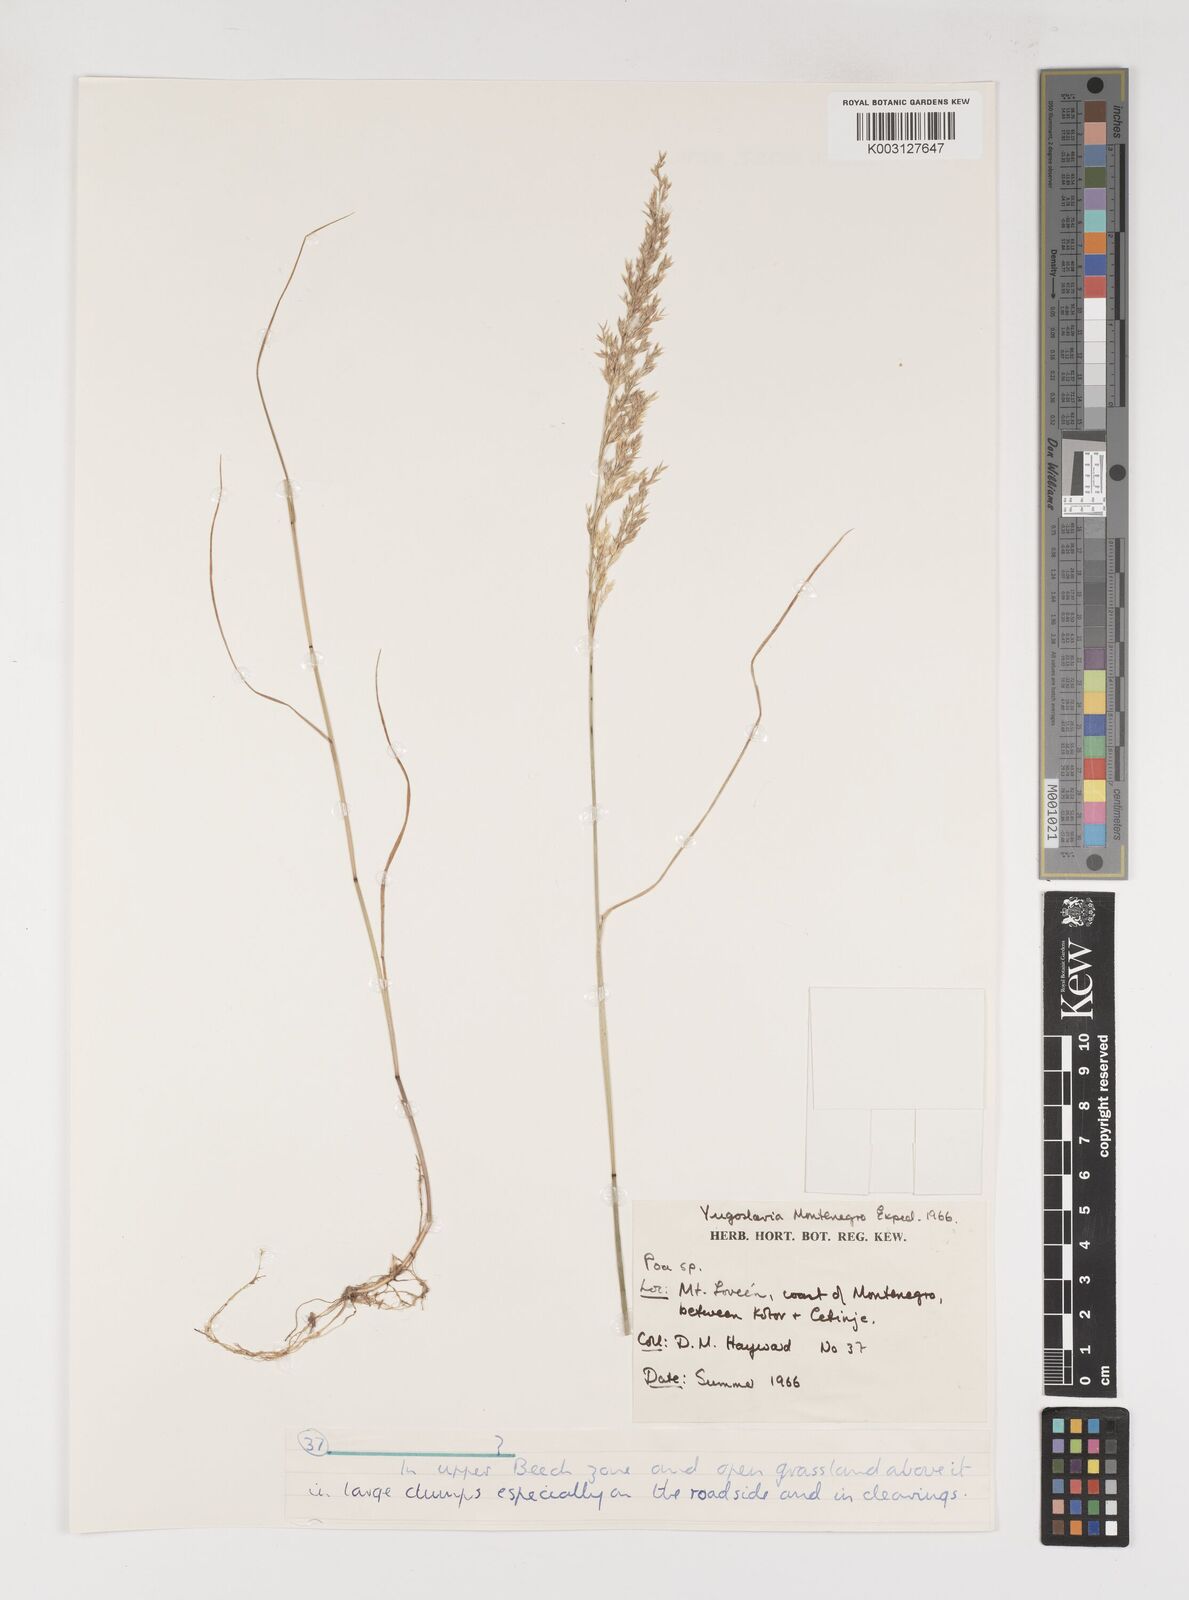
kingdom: Plantae
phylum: Tracheophyta
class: Liliopsida
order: Poales
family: Poaceae
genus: Poa
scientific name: Poa
